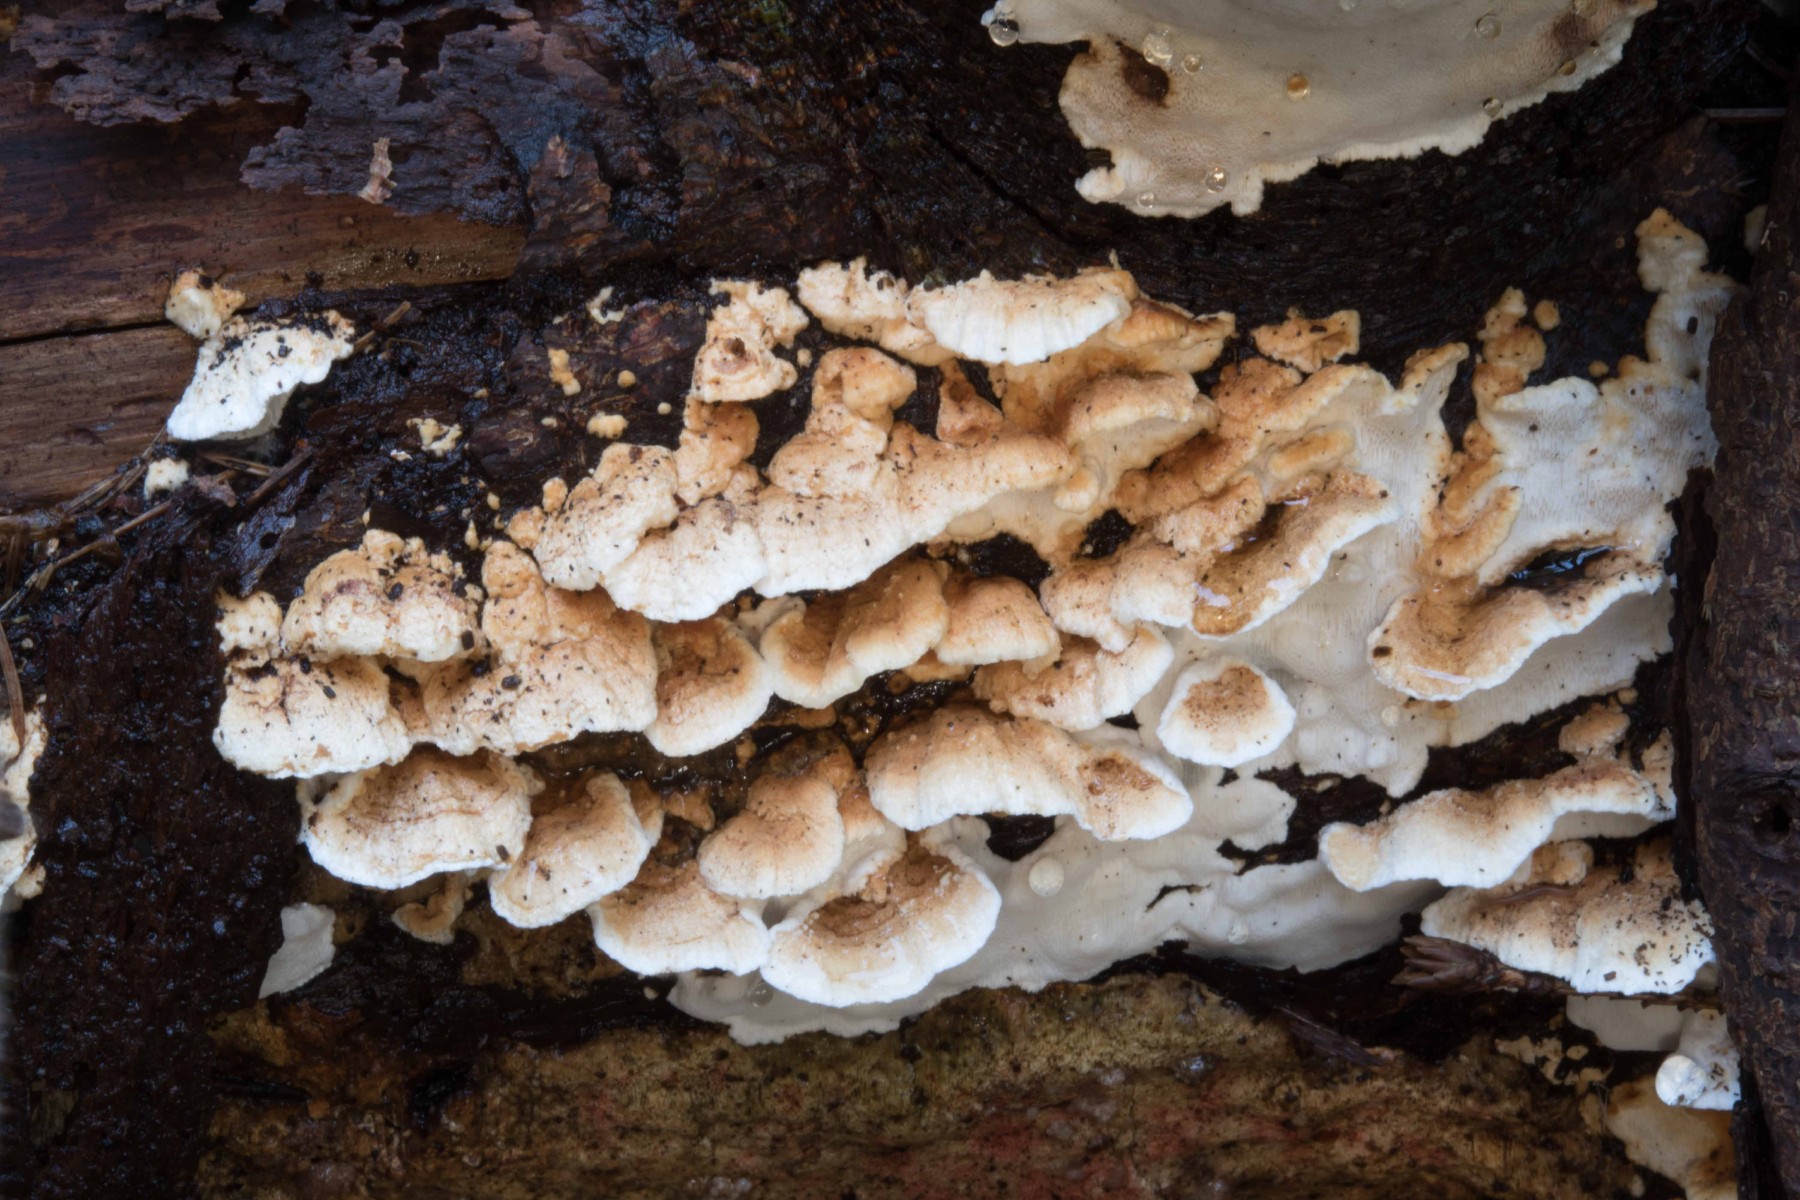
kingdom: Fungi
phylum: Basidiomycota
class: Agaricomycetes
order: Polyporales
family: Fomitopsidaceae
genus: Neoantrodia
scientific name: Neoantrodia serialis
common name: række-sejporesvamp
